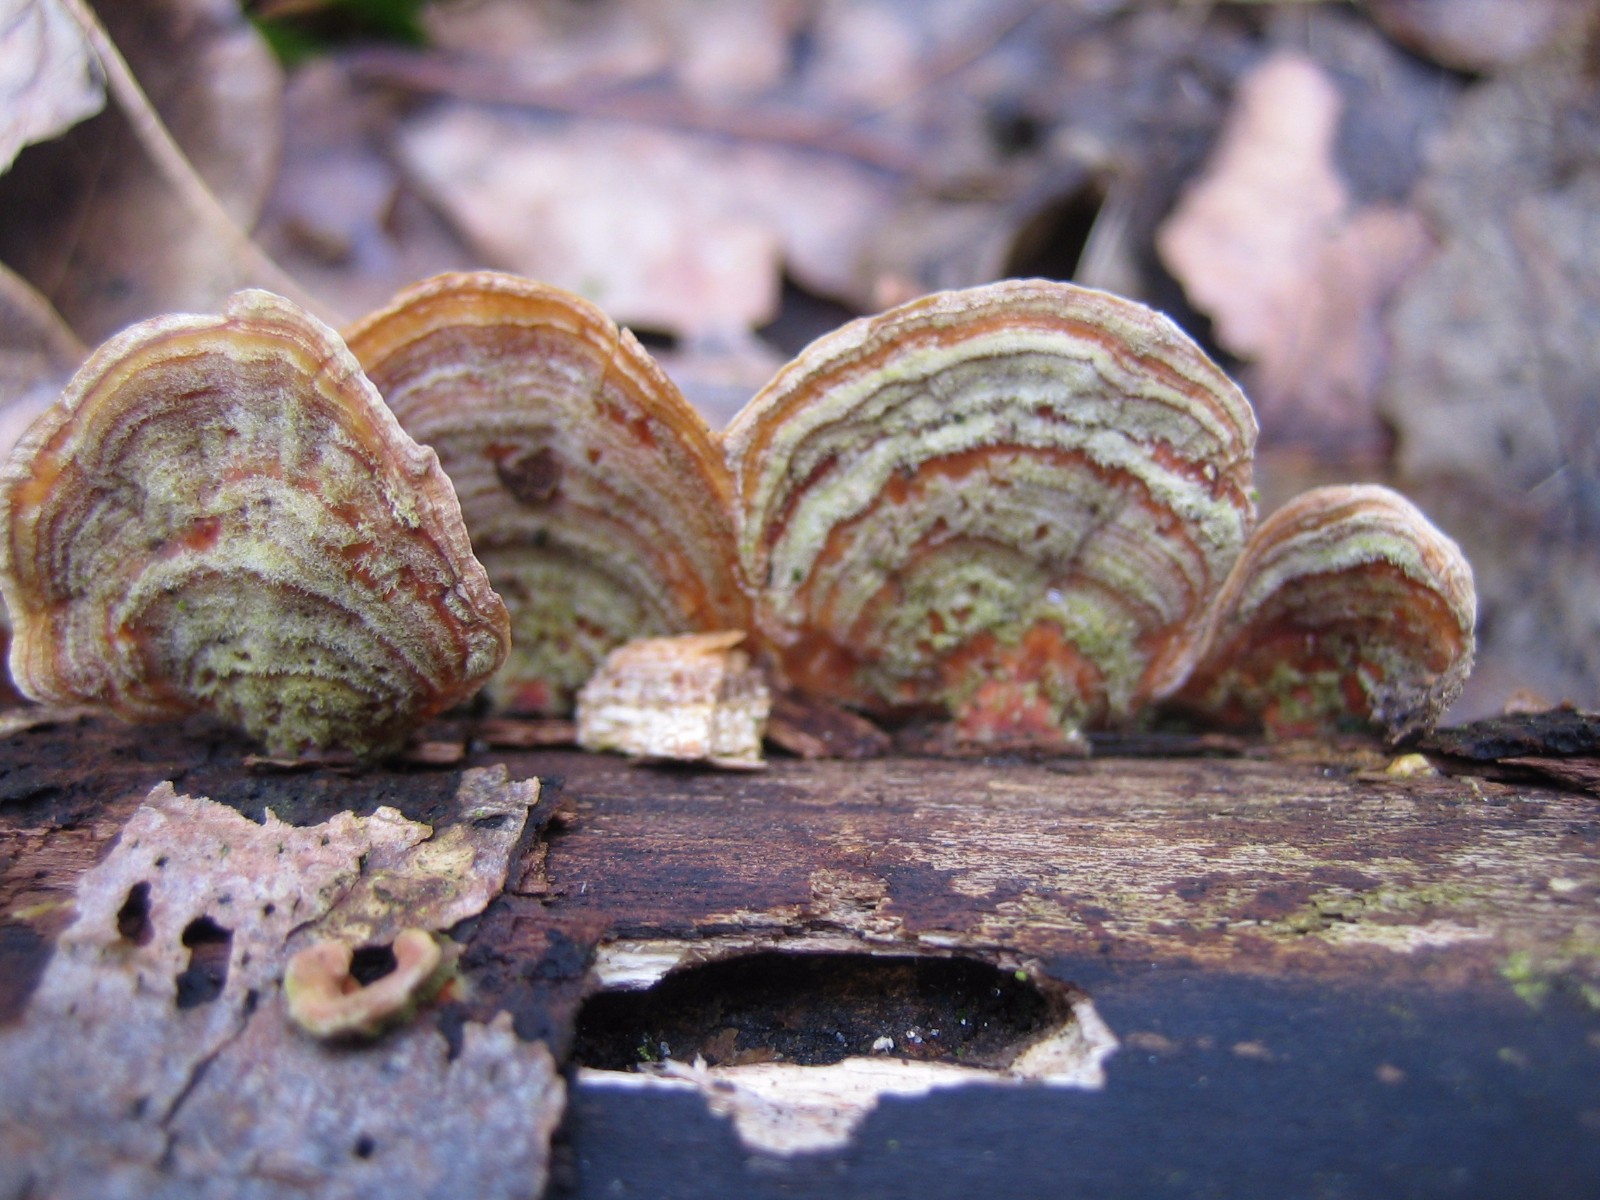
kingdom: Fungi
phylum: Basidiomycota
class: Agaricomycetes
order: Russulales
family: Stereaceae
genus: Stereum
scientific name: Stereum subtomentosum
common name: smuk lædersvamp
